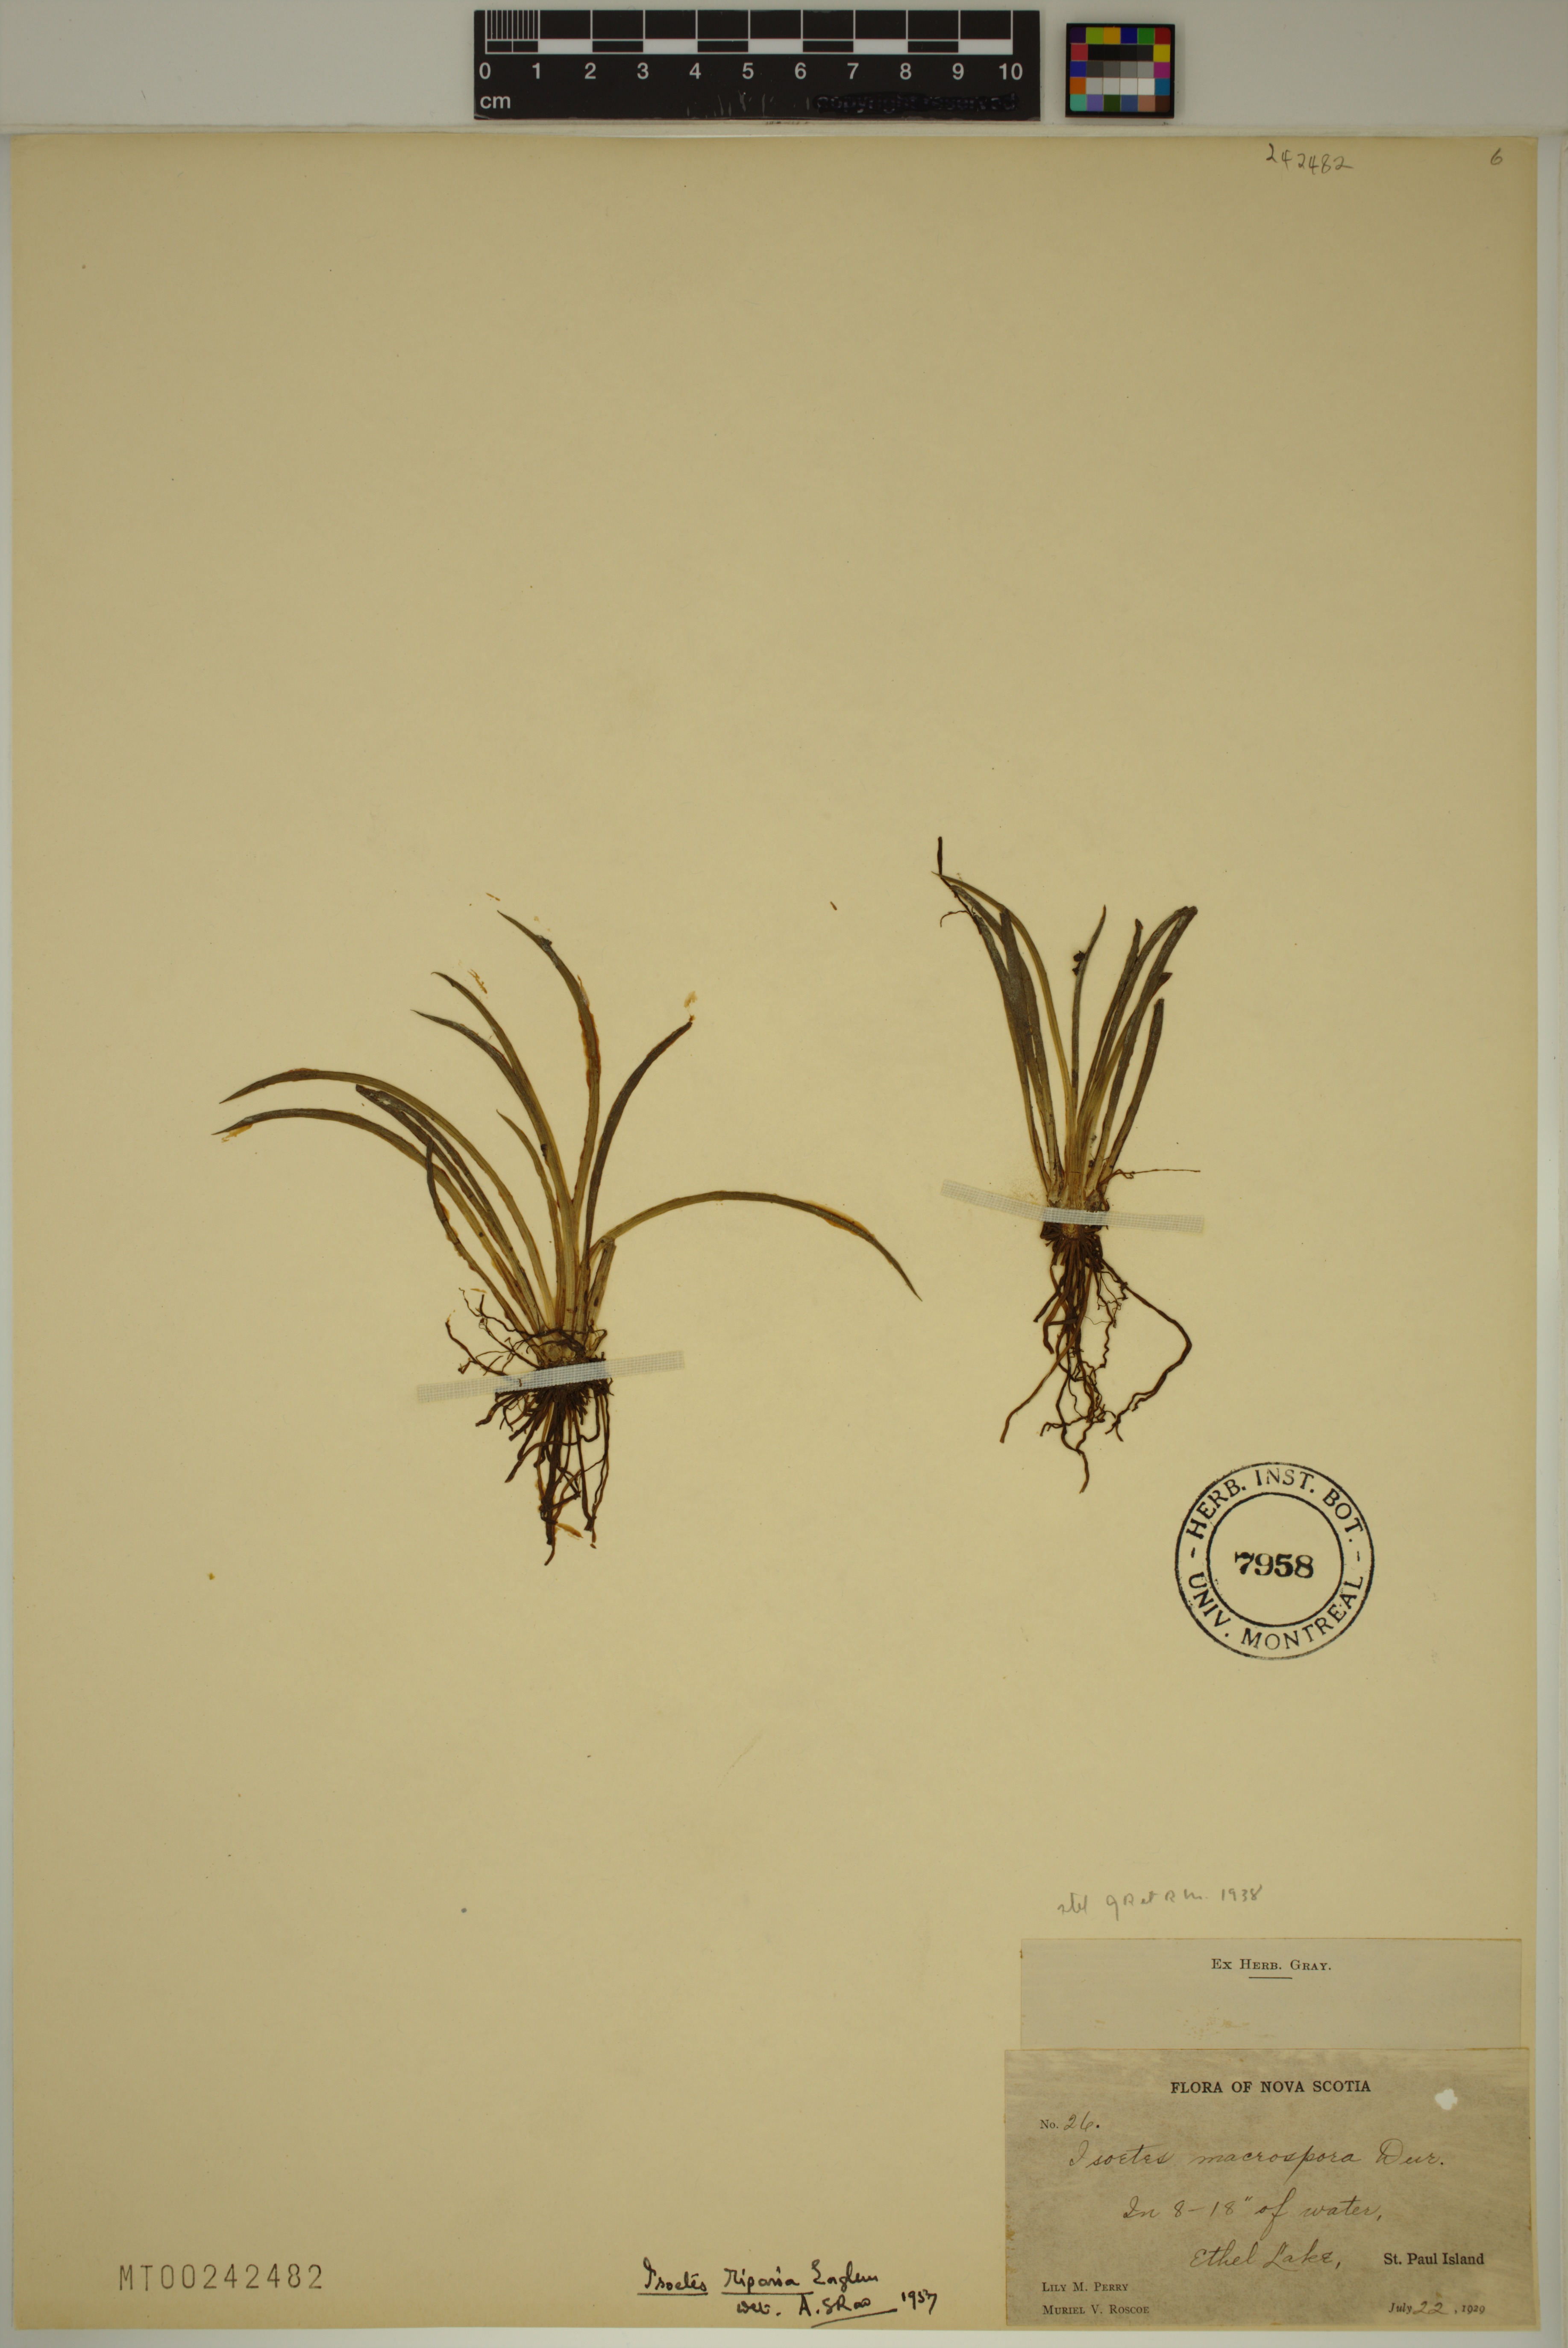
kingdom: Plantae
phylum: Tracheophyta
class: Lycopodiopsida
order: Isoetales
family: Isoetaceae
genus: Isoetes
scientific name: Isoetes lacustris
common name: Common quillwort
